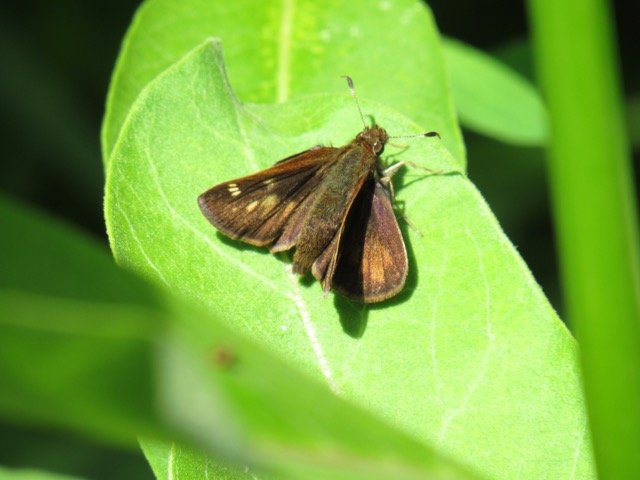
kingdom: Animalia
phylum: Arthropoda
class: Insecta
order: Lepidoptera
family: Hesperiidae
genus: Lon
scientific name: Lon hobomok
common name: Hobomok Skipper
